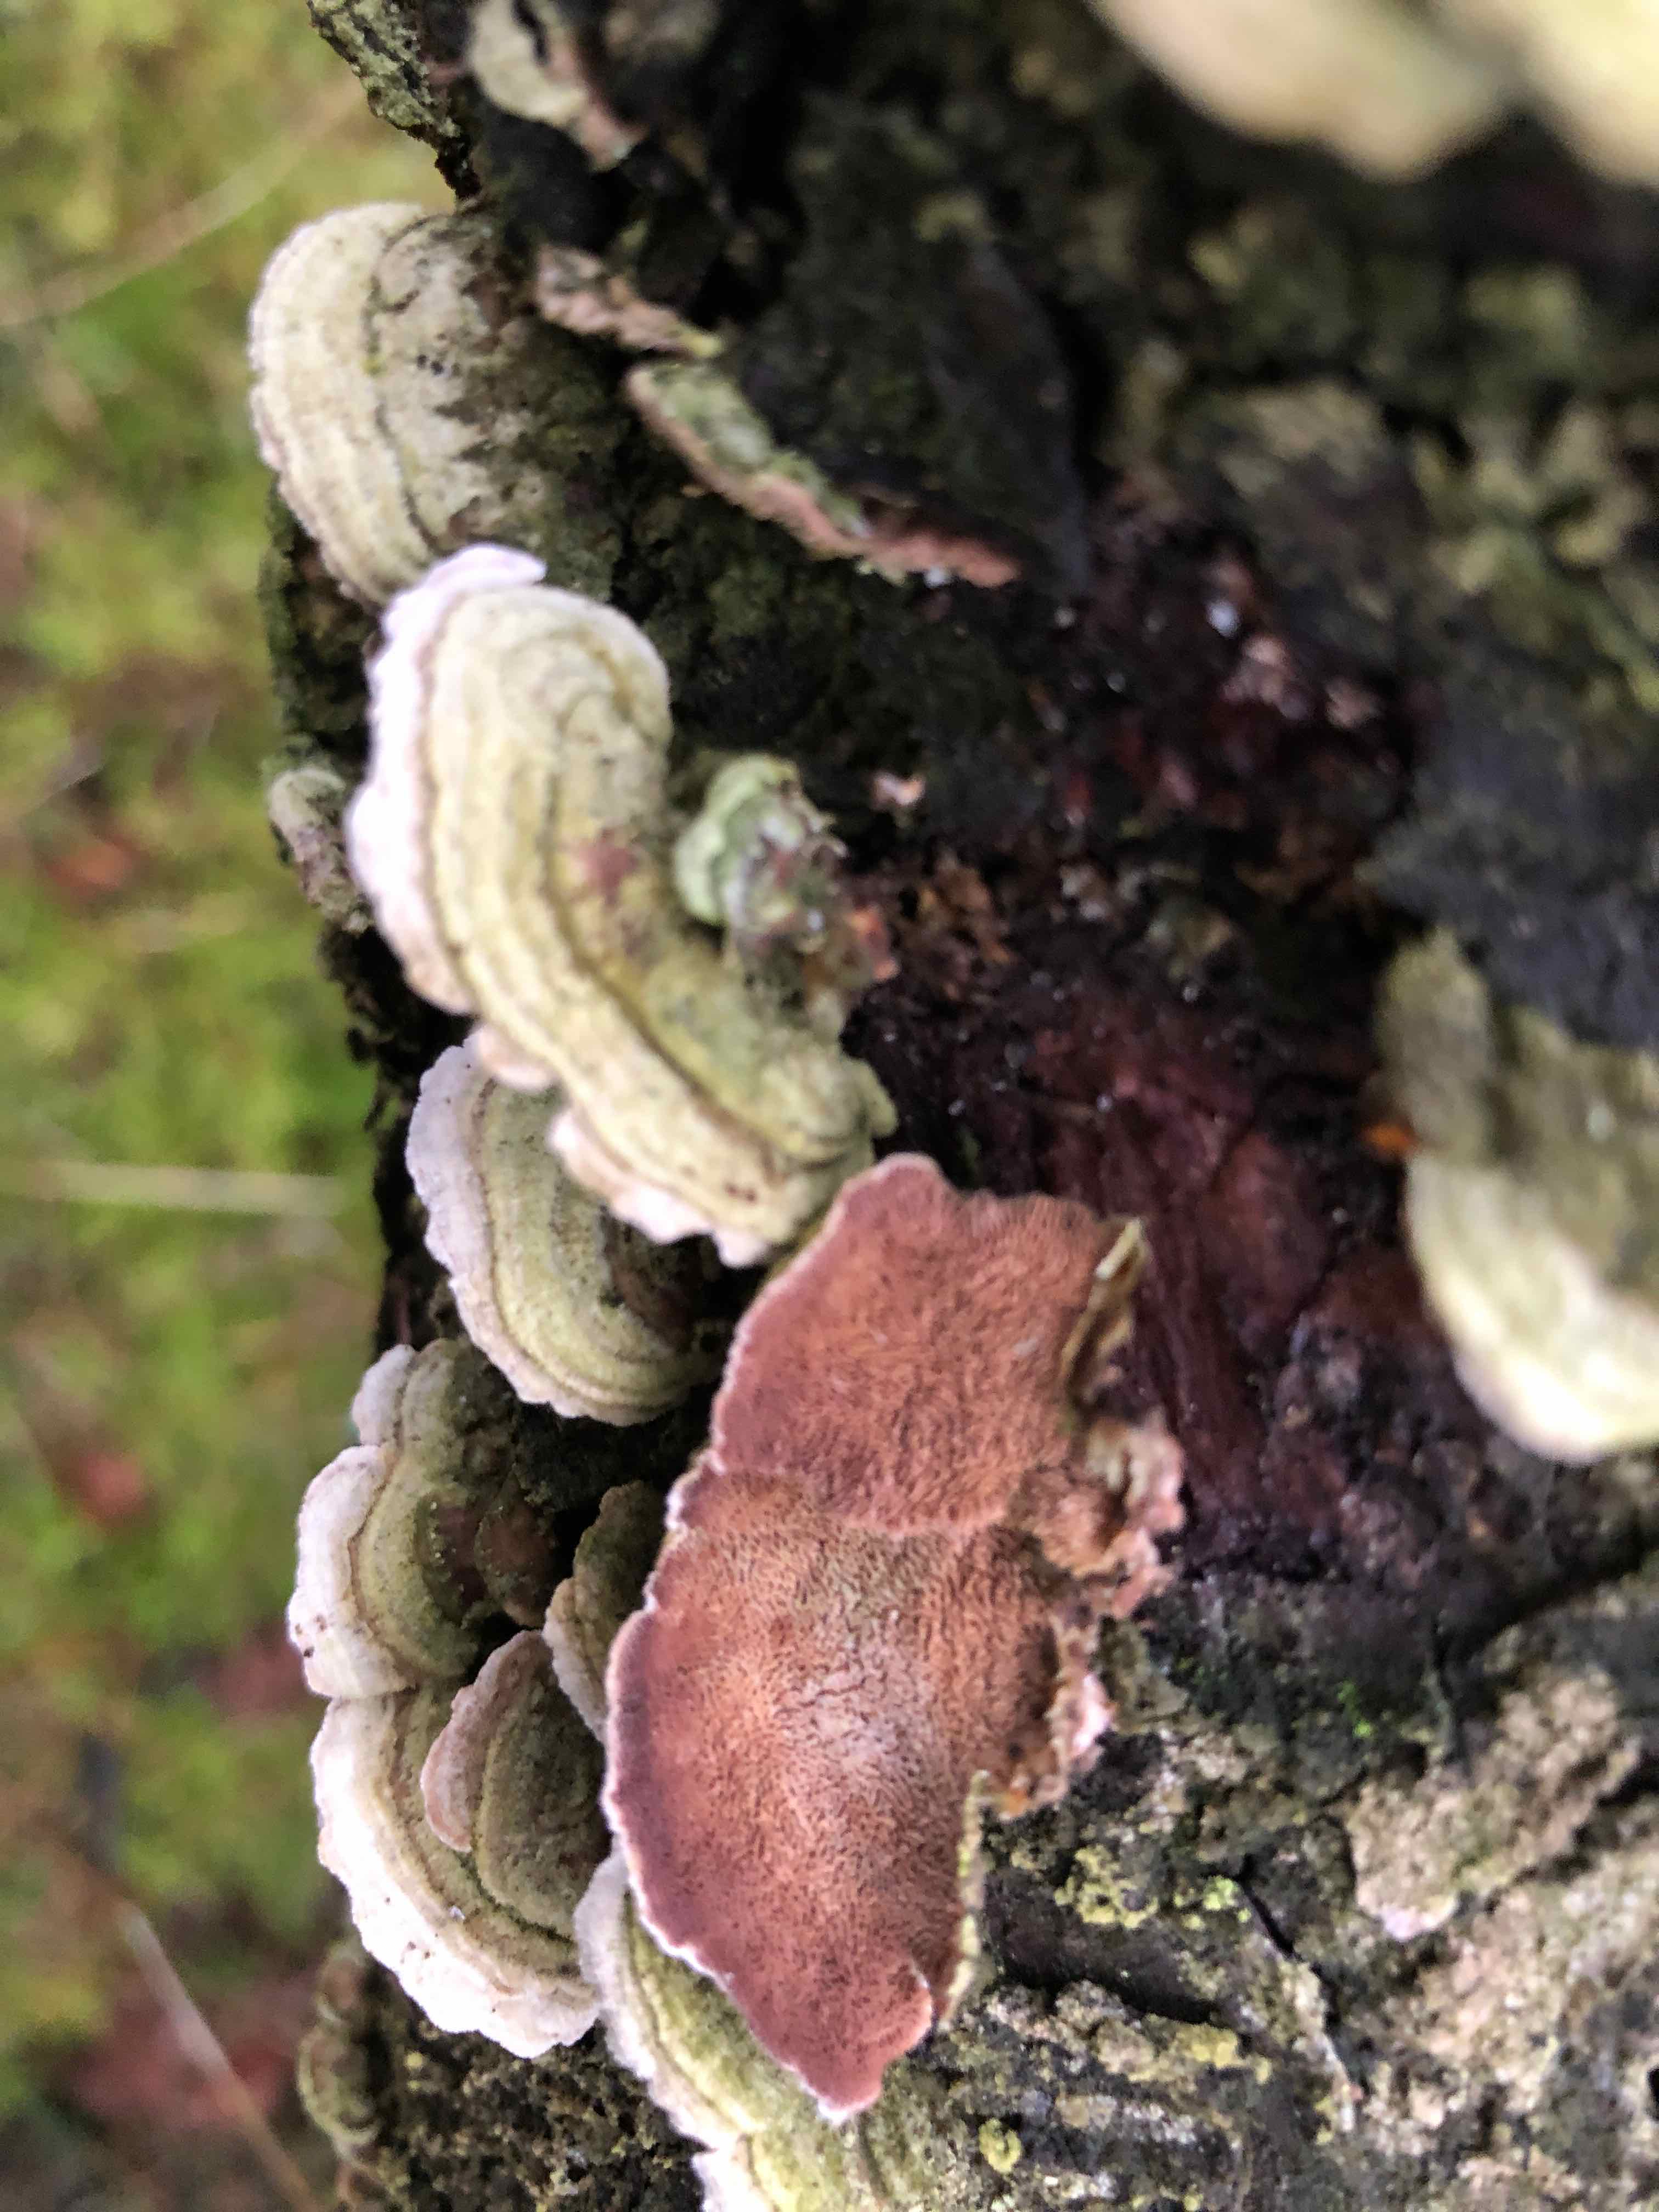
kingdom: Fungi
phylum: Basidiomycota
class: Agaricomycetes
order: Hymenochaetales
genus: Trichaptum
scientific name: Trichaptum abietinum
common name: almindelig violporesvamp
